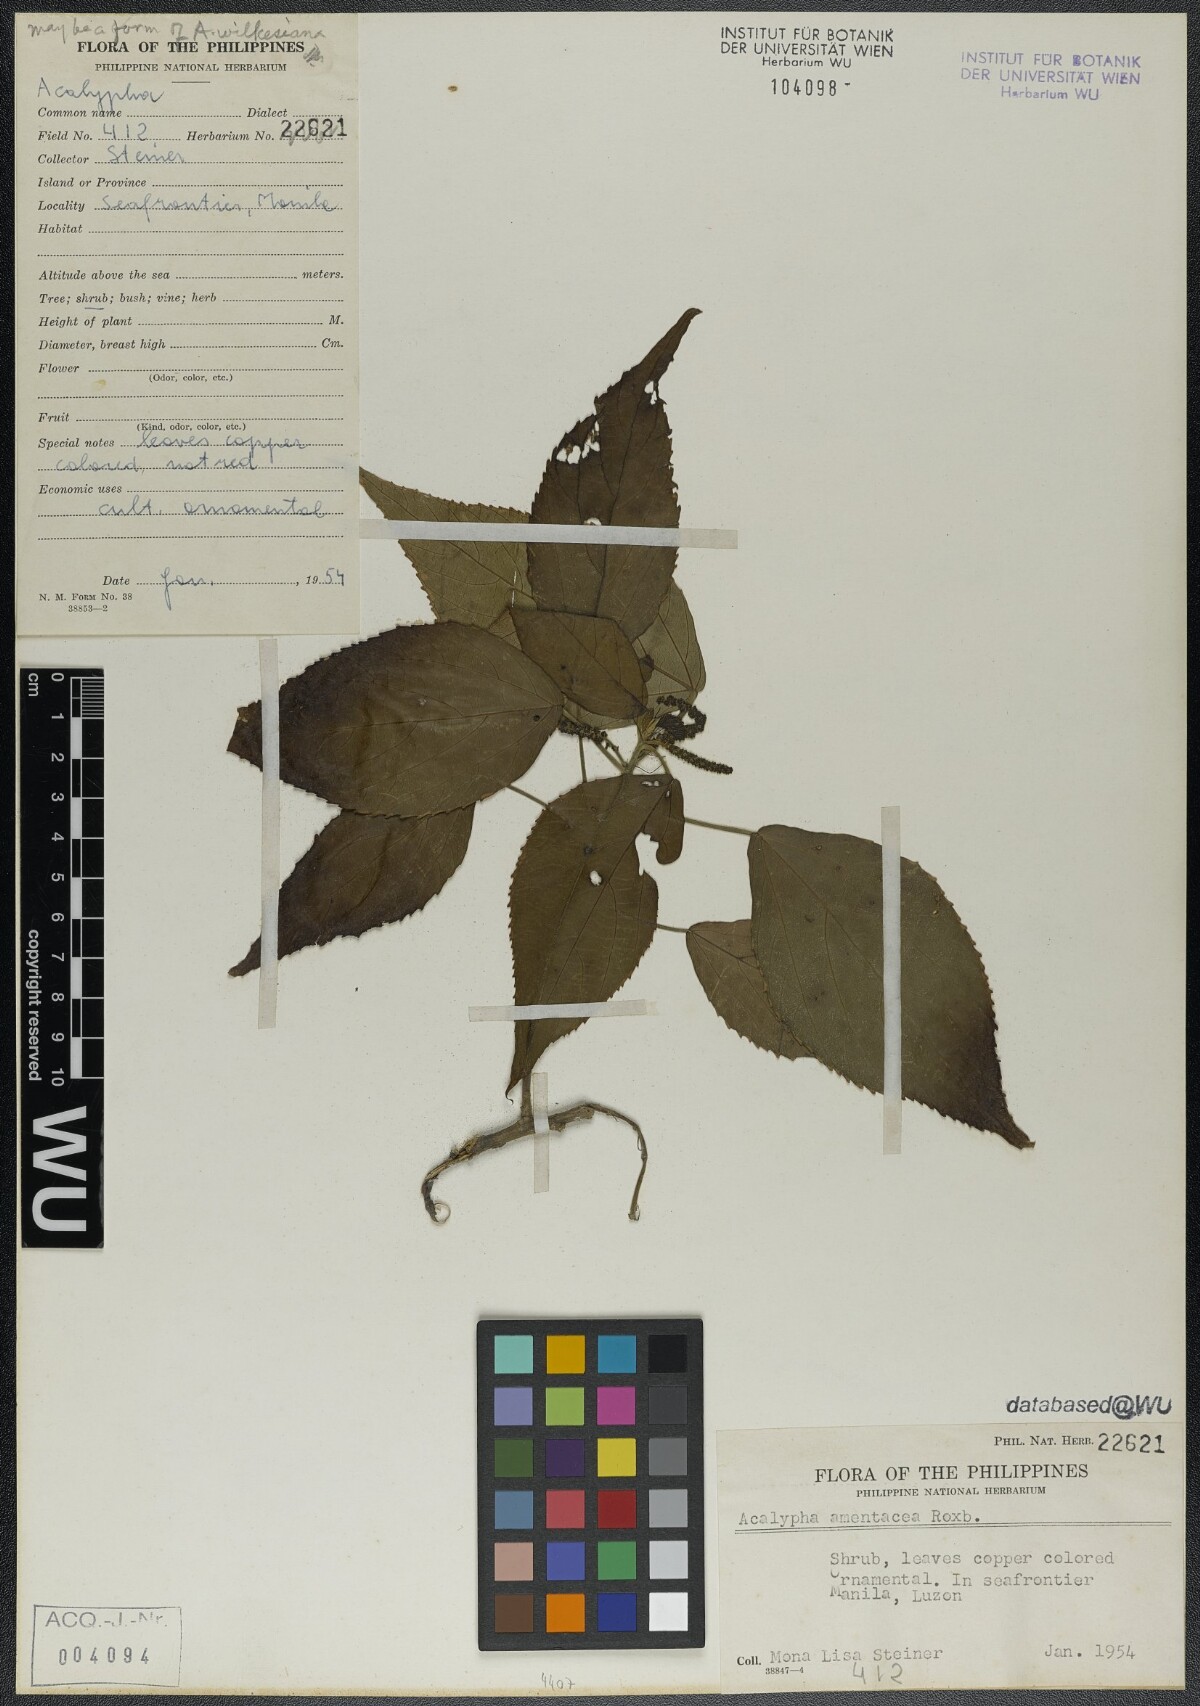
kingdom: Plantae
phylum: Tracheophyta
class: Magnoliopsida
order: Malpighiales
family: Euphorbiaceae
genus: Acalypha
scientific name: Acalypha amentacea
